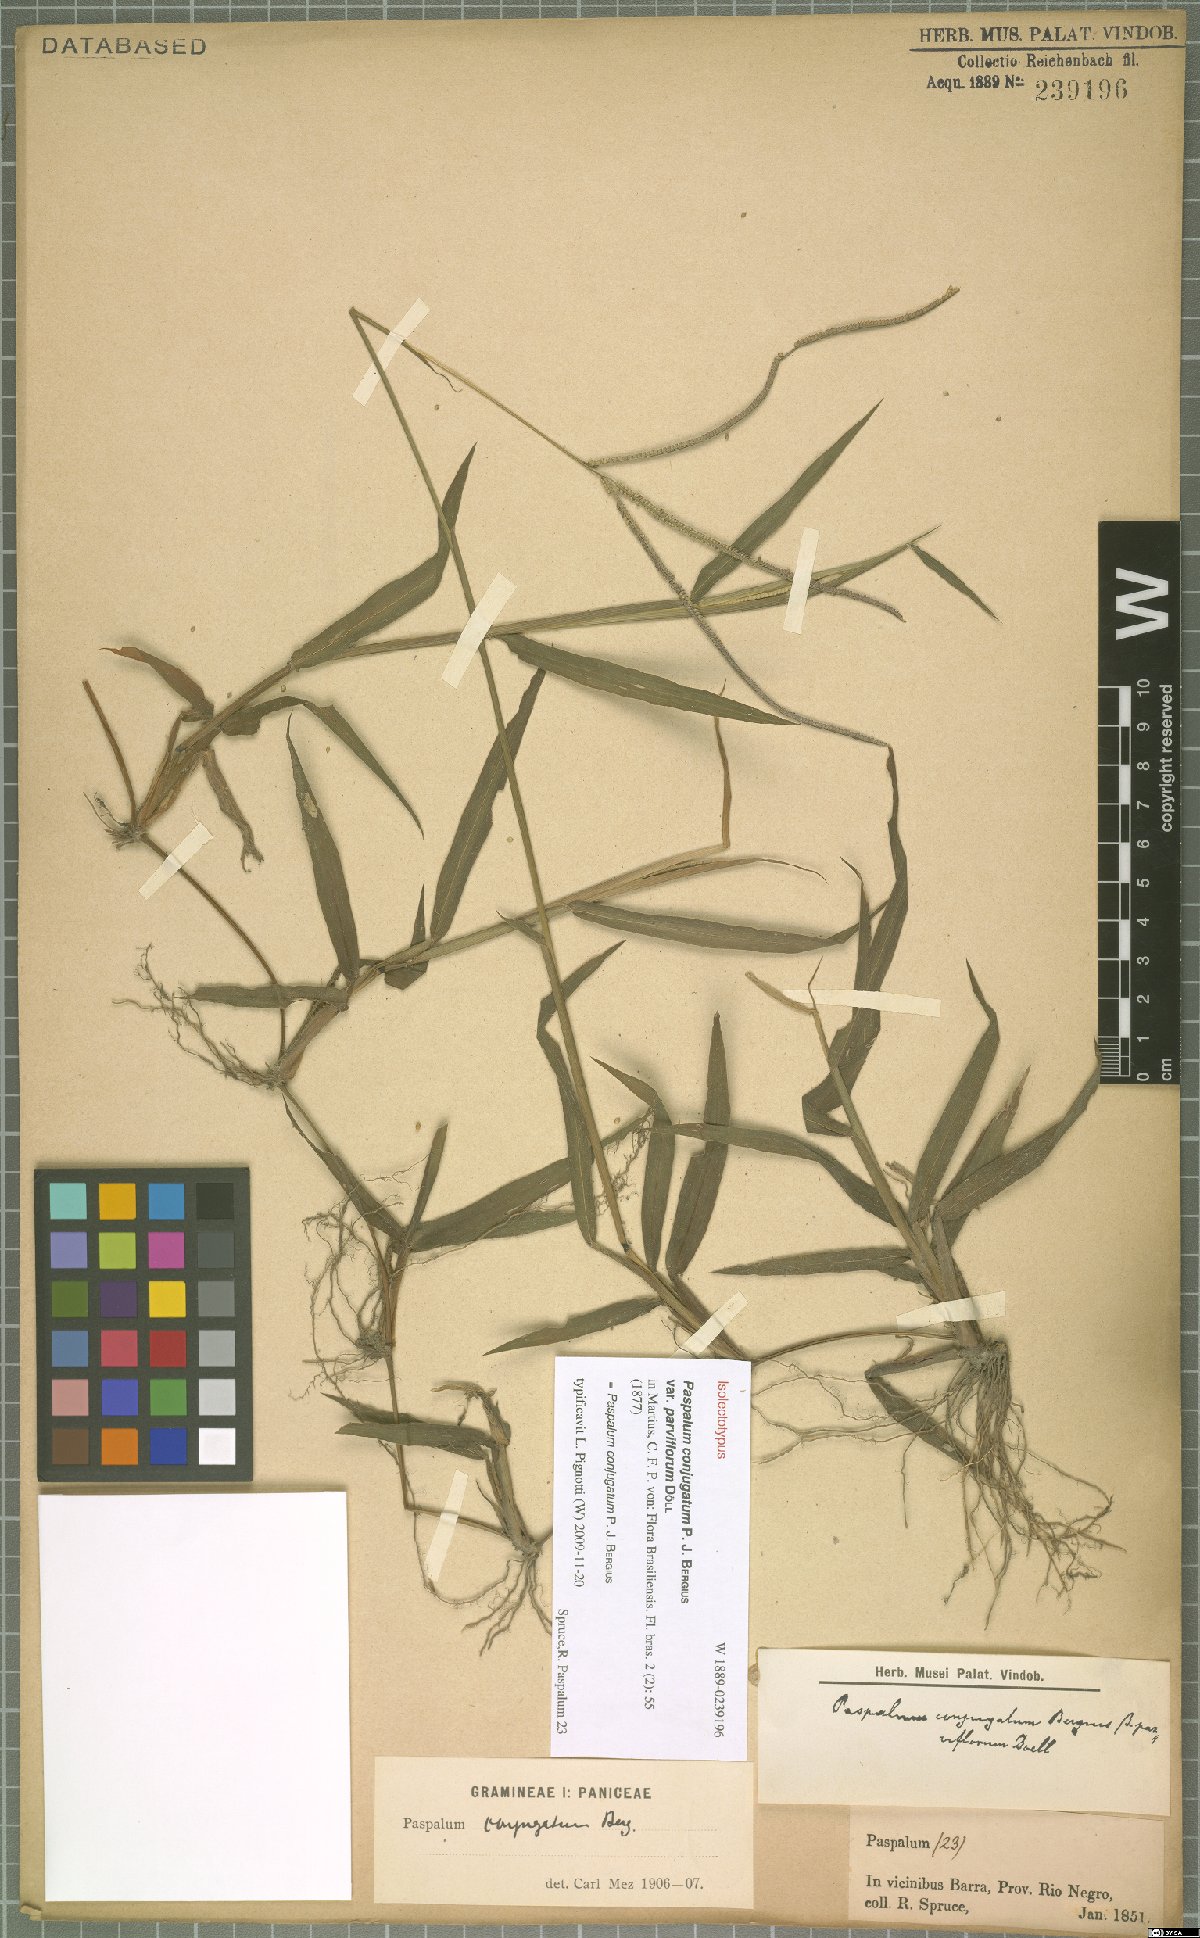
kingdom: Plantae
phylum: Tracheophyta
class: Liliopsida
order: Poales
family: Poaceae
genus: Paspalum
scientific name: Paspalum conjugatum
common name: Hilograss
